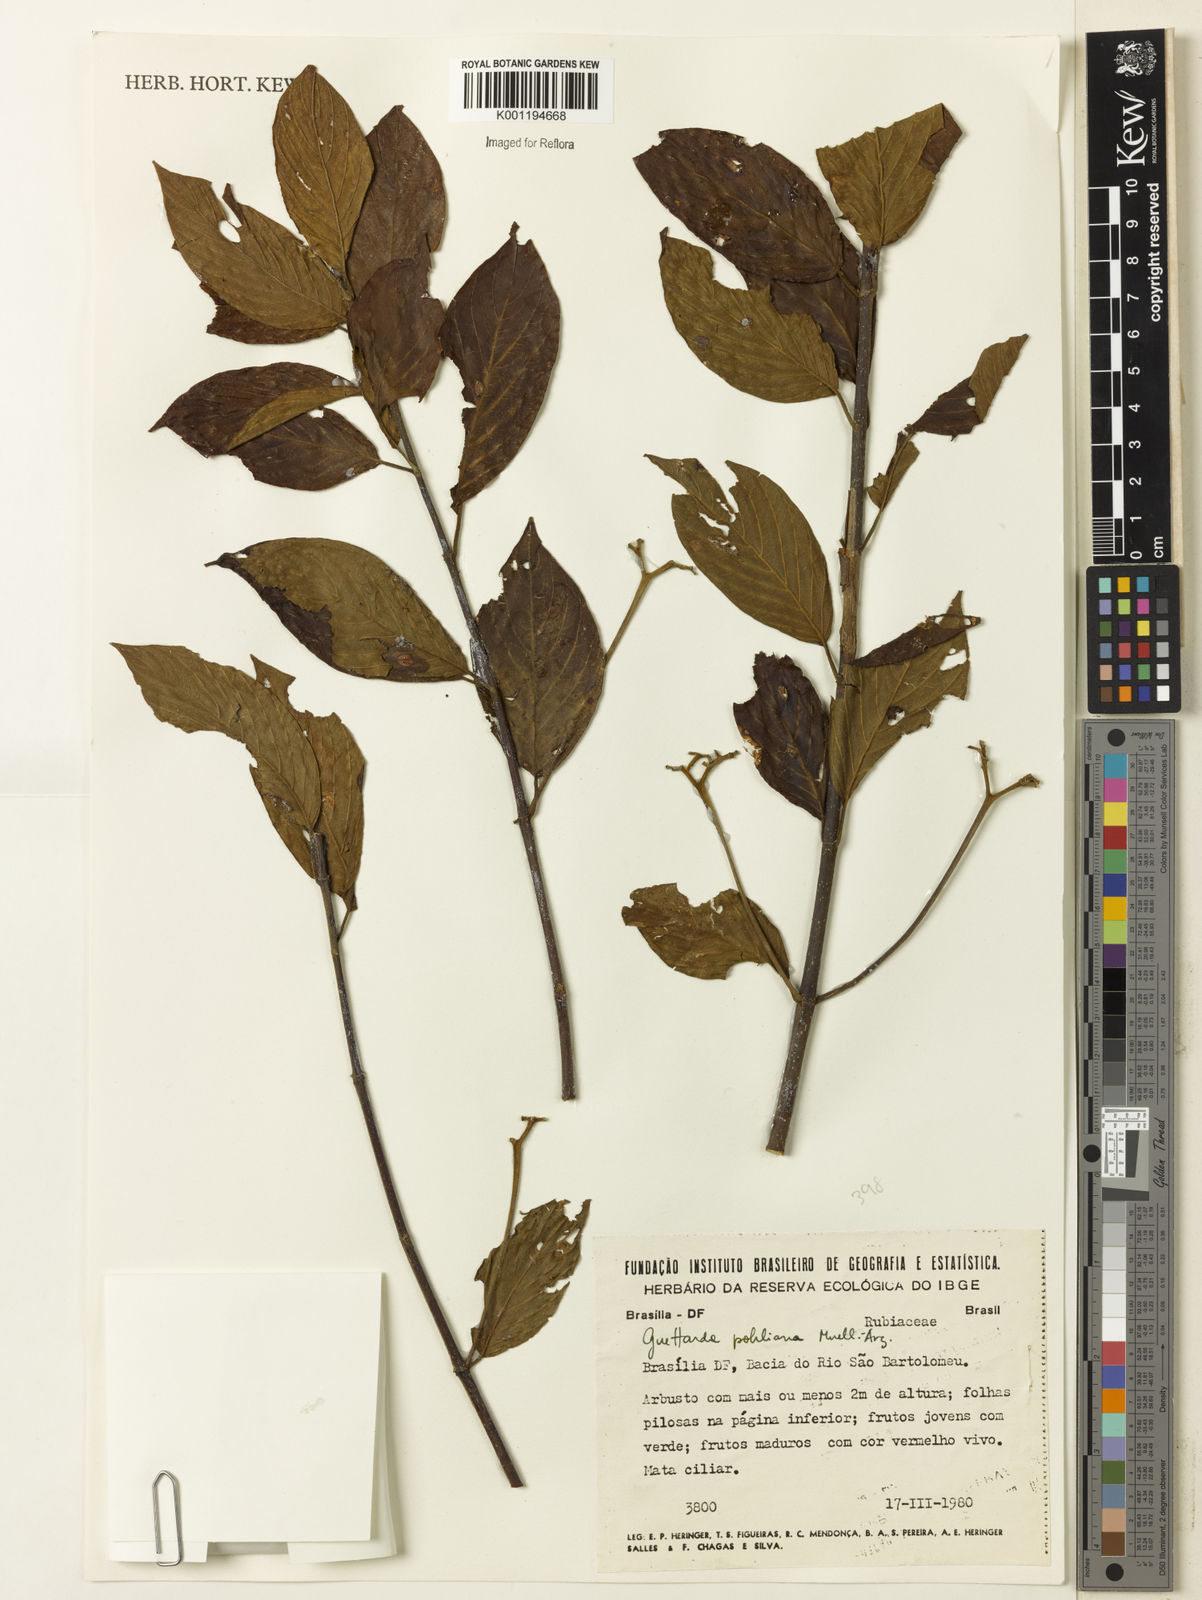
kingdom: Plantae
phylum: Tracheophyta
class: Magnoliopsida
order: Gentianales
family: Rubiaceae
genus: Guettarda
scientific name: Guettarda
